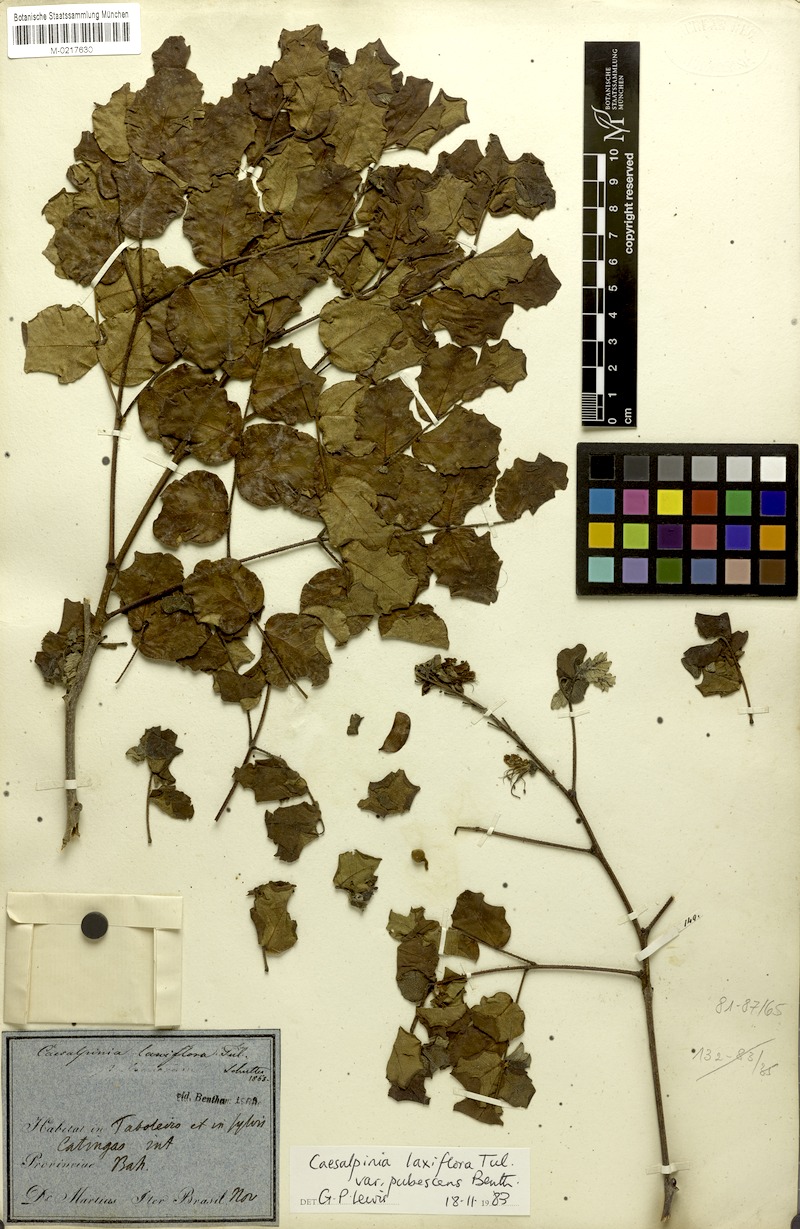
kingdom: Plantae
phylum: Tracheophyta
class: Magnoliopsida
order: Fabales
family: Fabaceae
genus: Cenostigma
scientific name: Cenostigma laxiflorum
